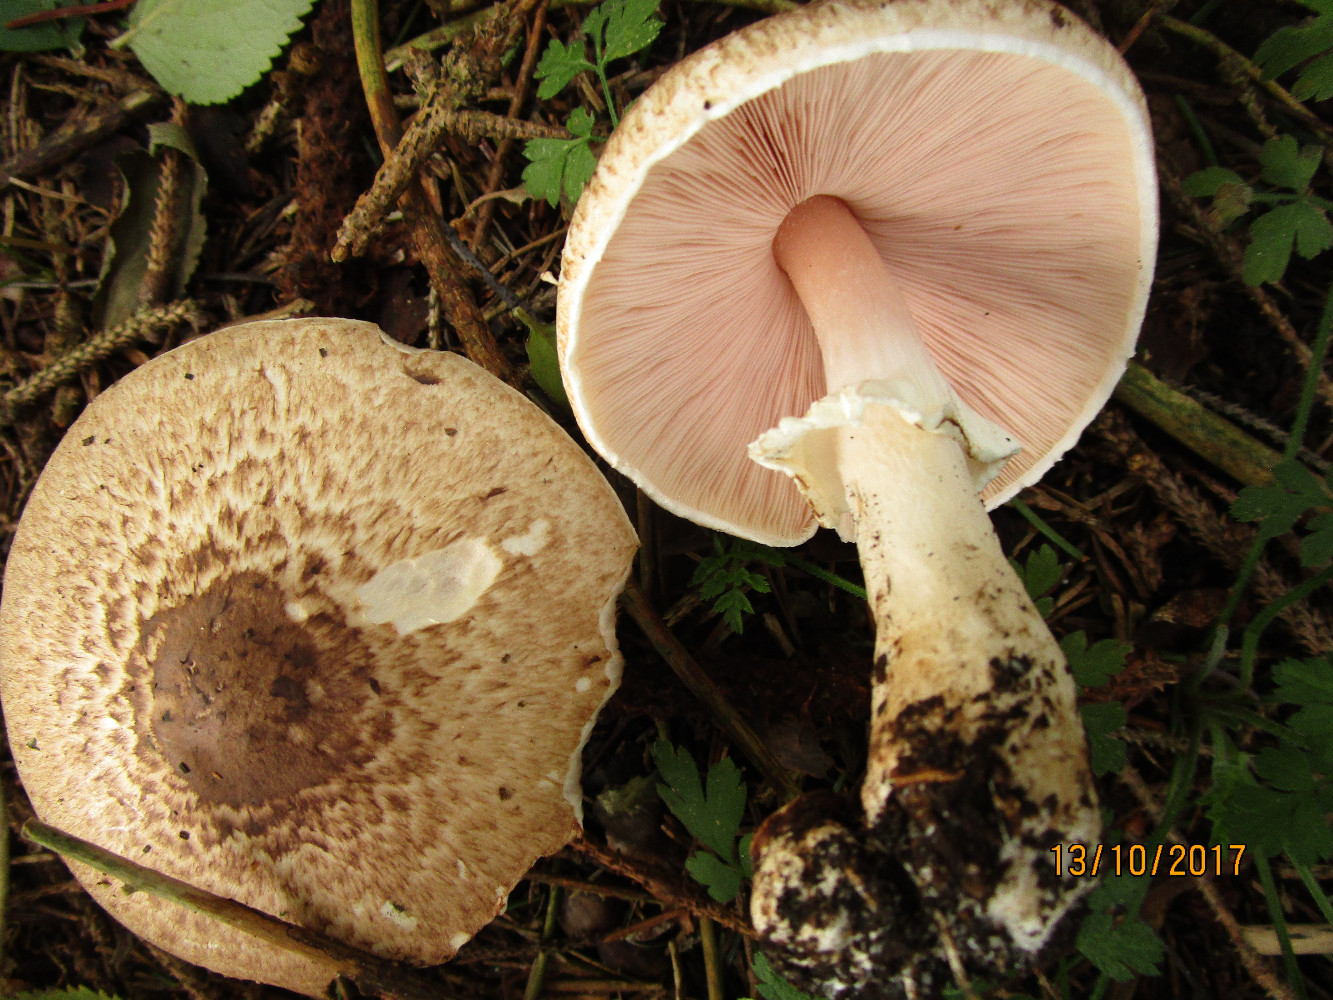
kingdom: Fungi
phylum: Basidiomycota
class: Agaricomycetes
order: Agaricales
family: Agaricaceae
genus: Agaricus
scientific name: Agaricus impudicus
